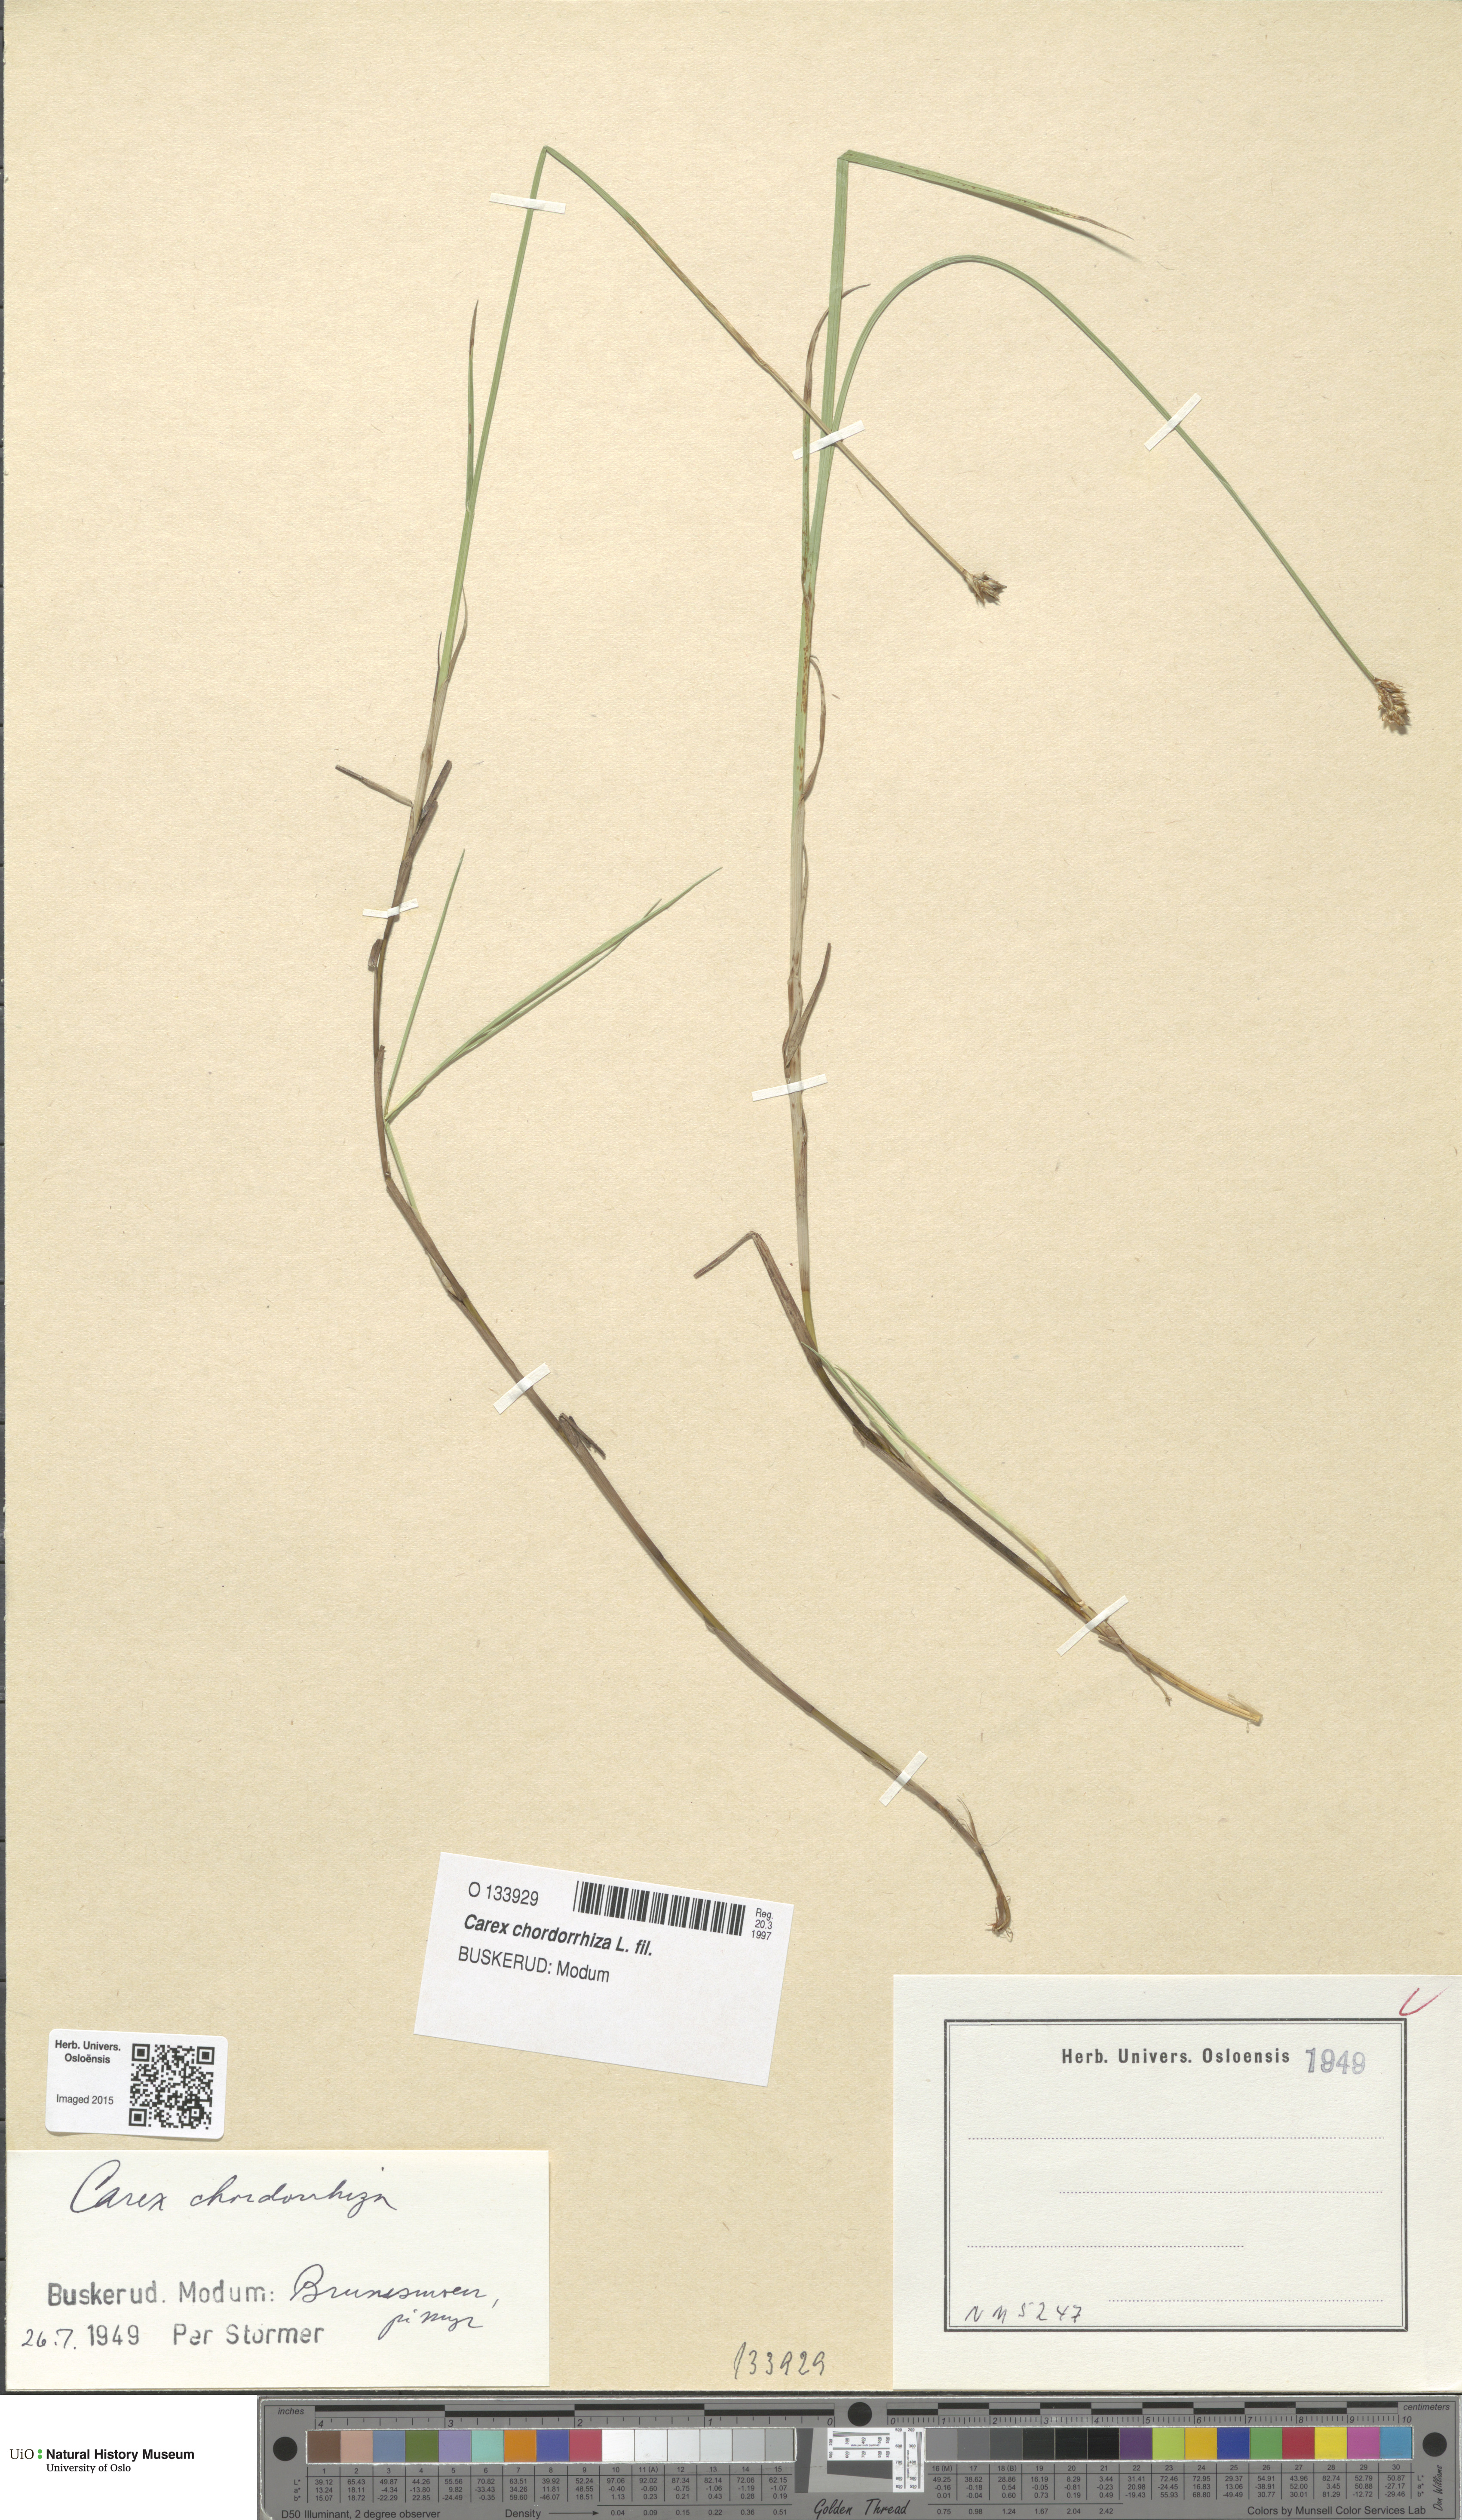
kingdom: Plantae
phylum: Tracheophyta
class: Liliopsida
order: Poales
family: Cyperaceae
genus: Carex
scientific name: Carex chordorrhiza
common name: String sedge
